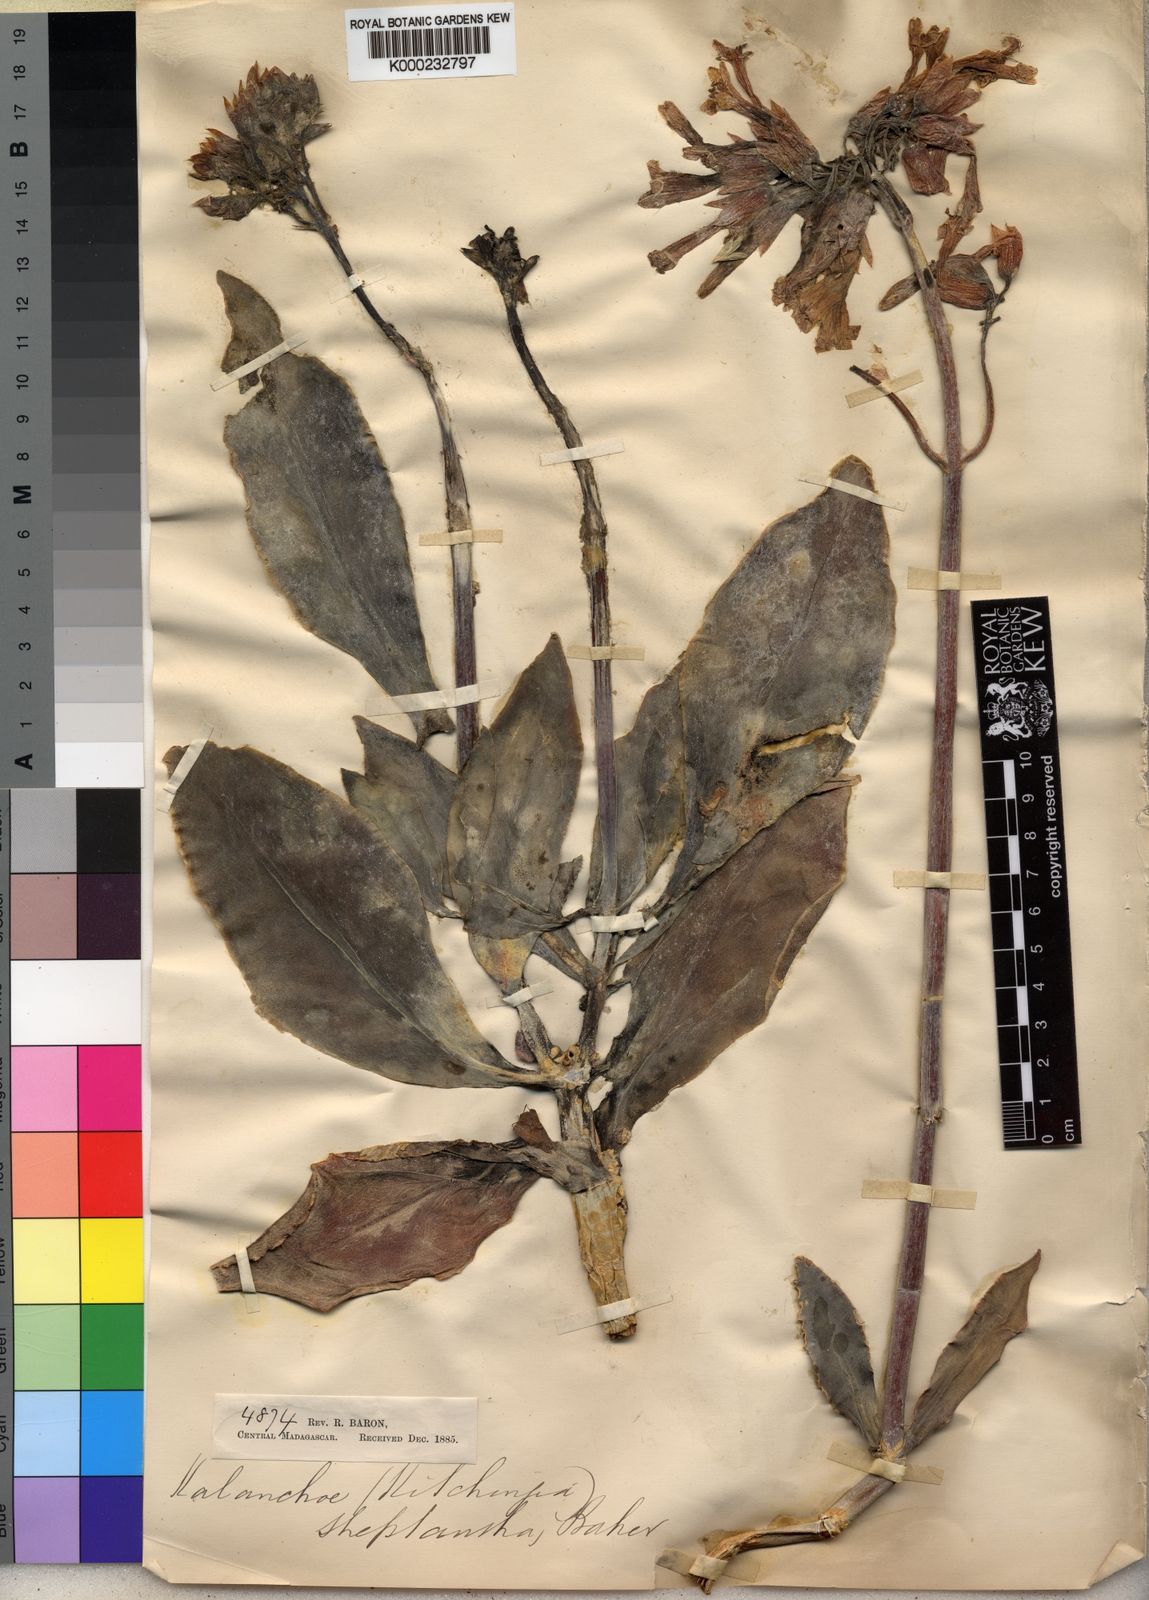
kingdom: Plantae
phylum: Tracheophyta
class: Magnoliopsida
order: Saxifragales
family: Crassulaceae
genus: Kalanchoe
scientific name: Kalanchoe streptantha
